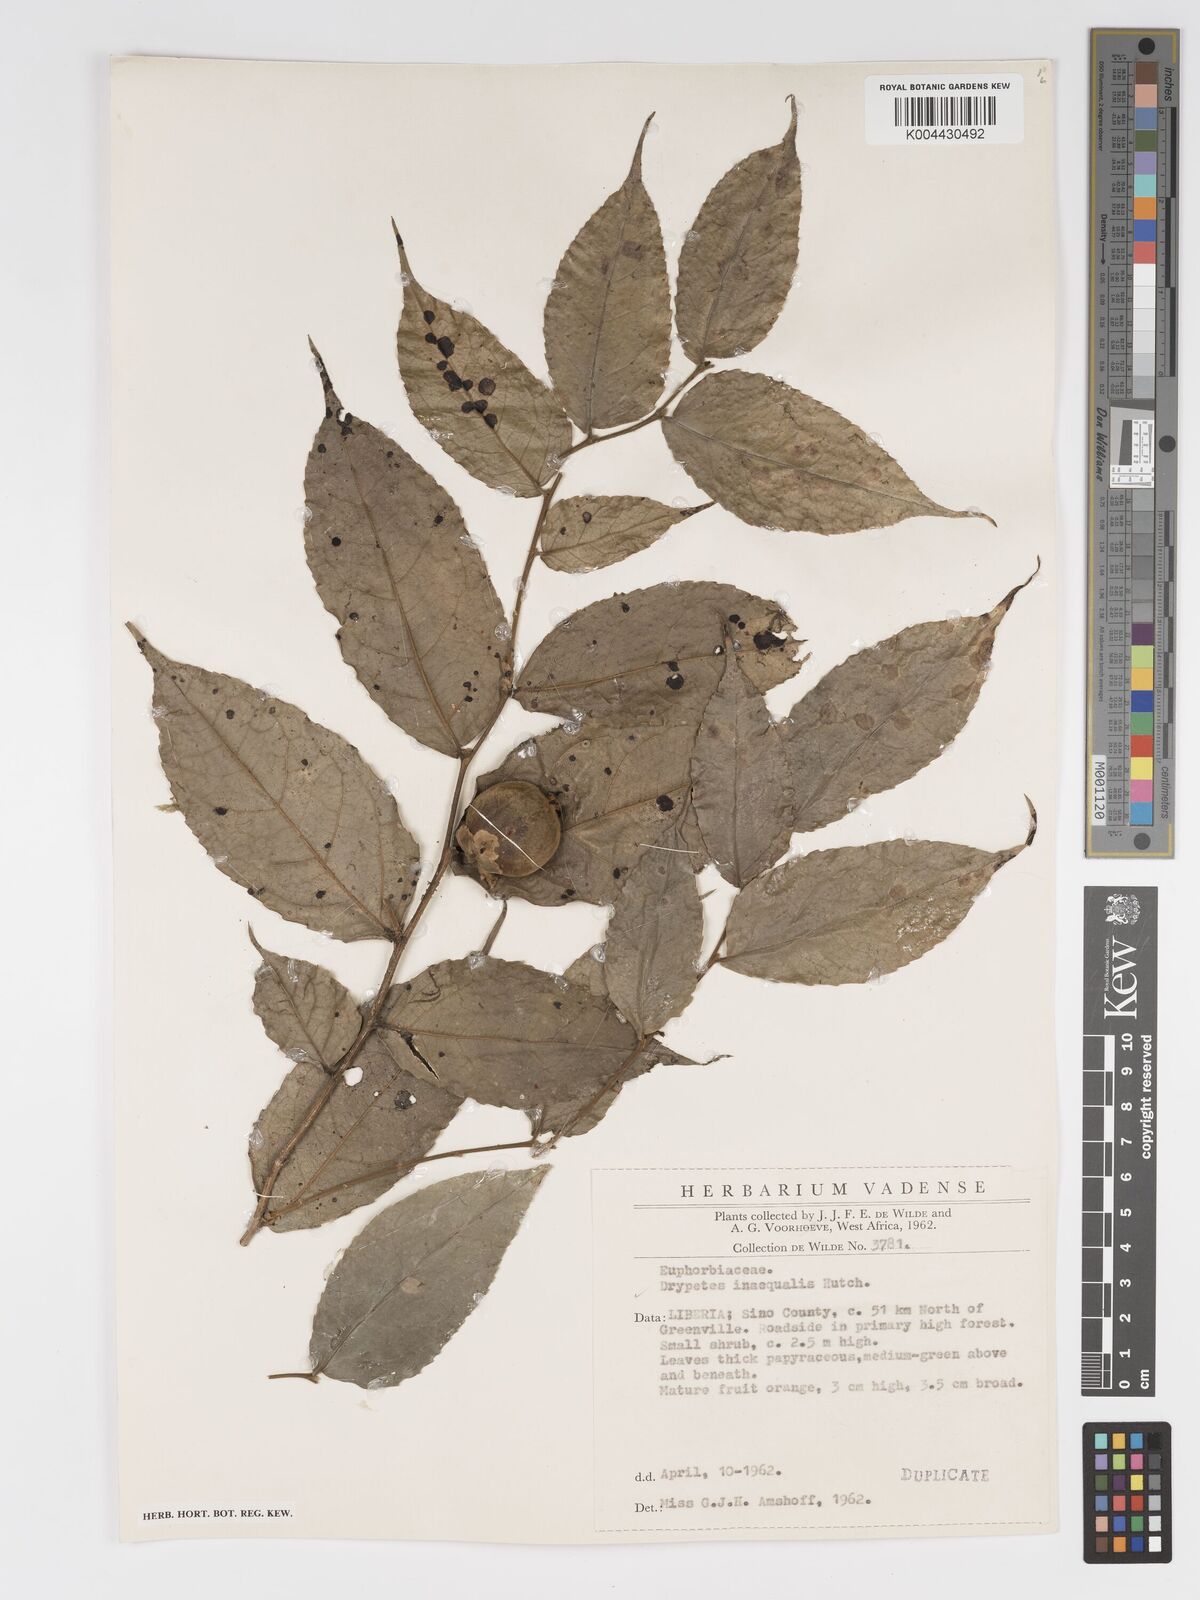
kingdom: Plantae
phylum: Tracheophyta
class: Magnoliopsida
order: Malpighiales
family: Putranjivaceae
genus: Drypetes
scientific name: Drypetes inaequalis
